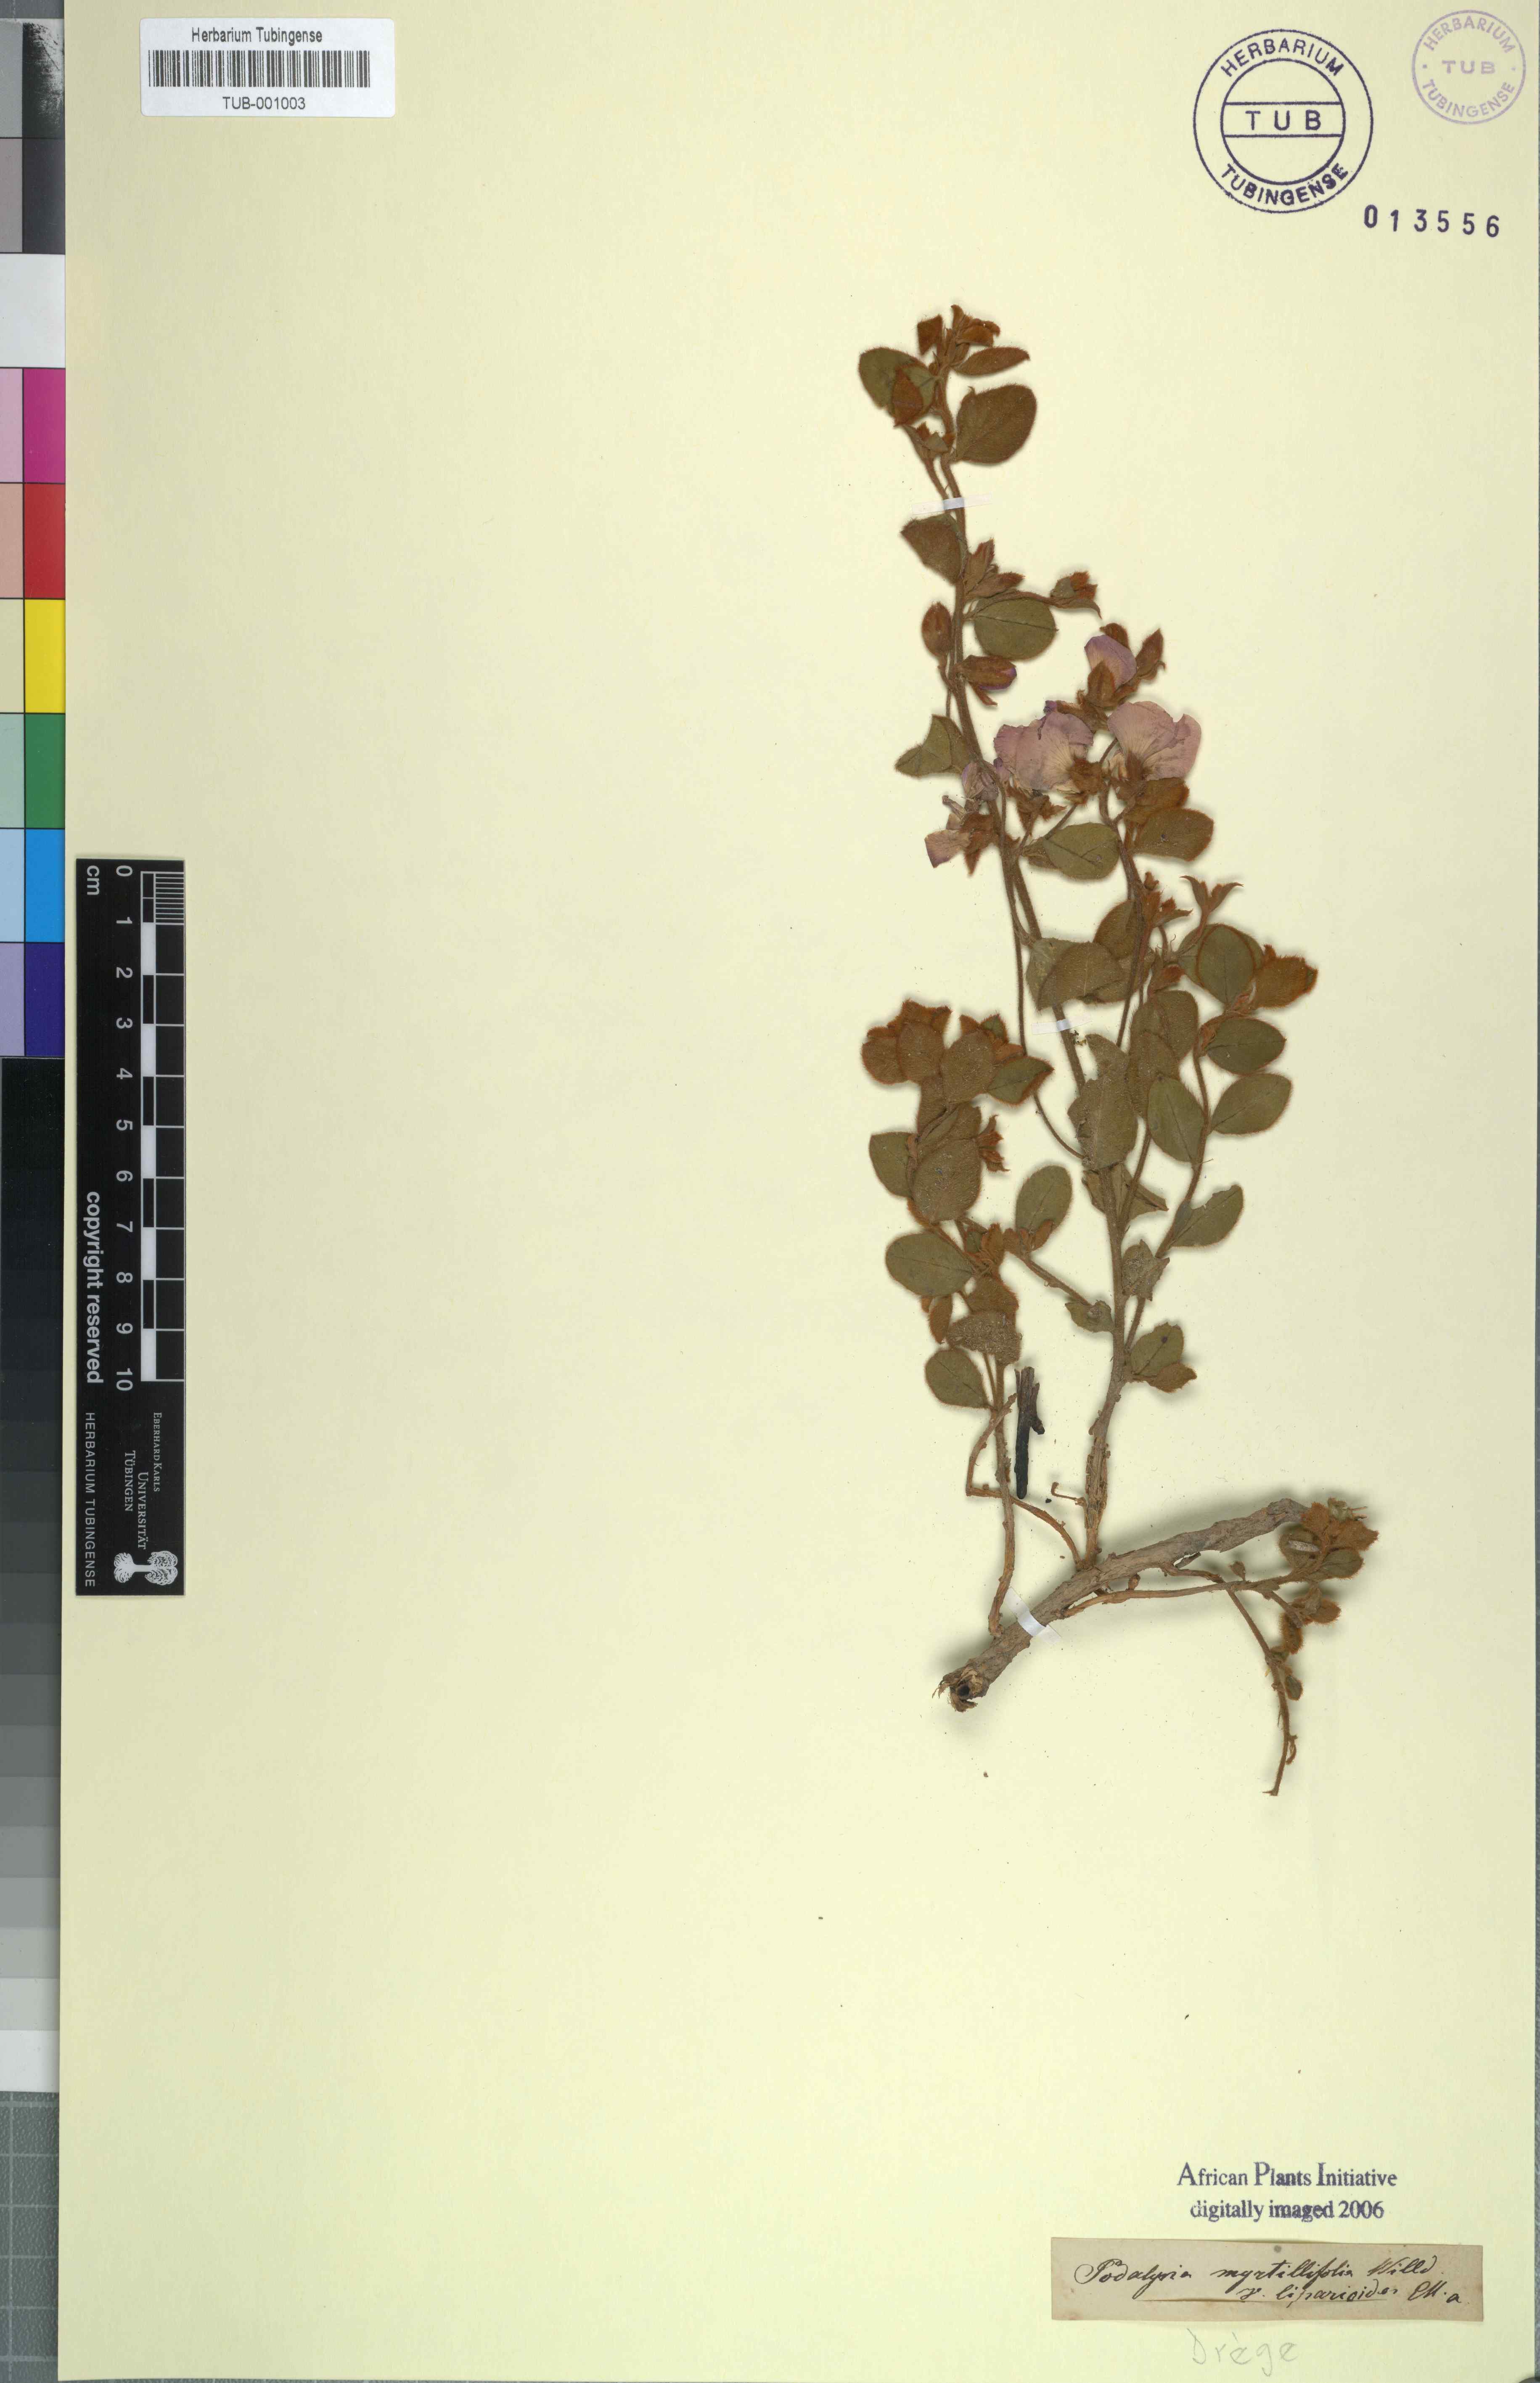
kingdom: Plantae
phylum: Tracheophyta
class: Magnoliopsida
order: Fabales
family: Fabaceae
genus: Podalyria
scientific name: Podalyria myrtillifolia
